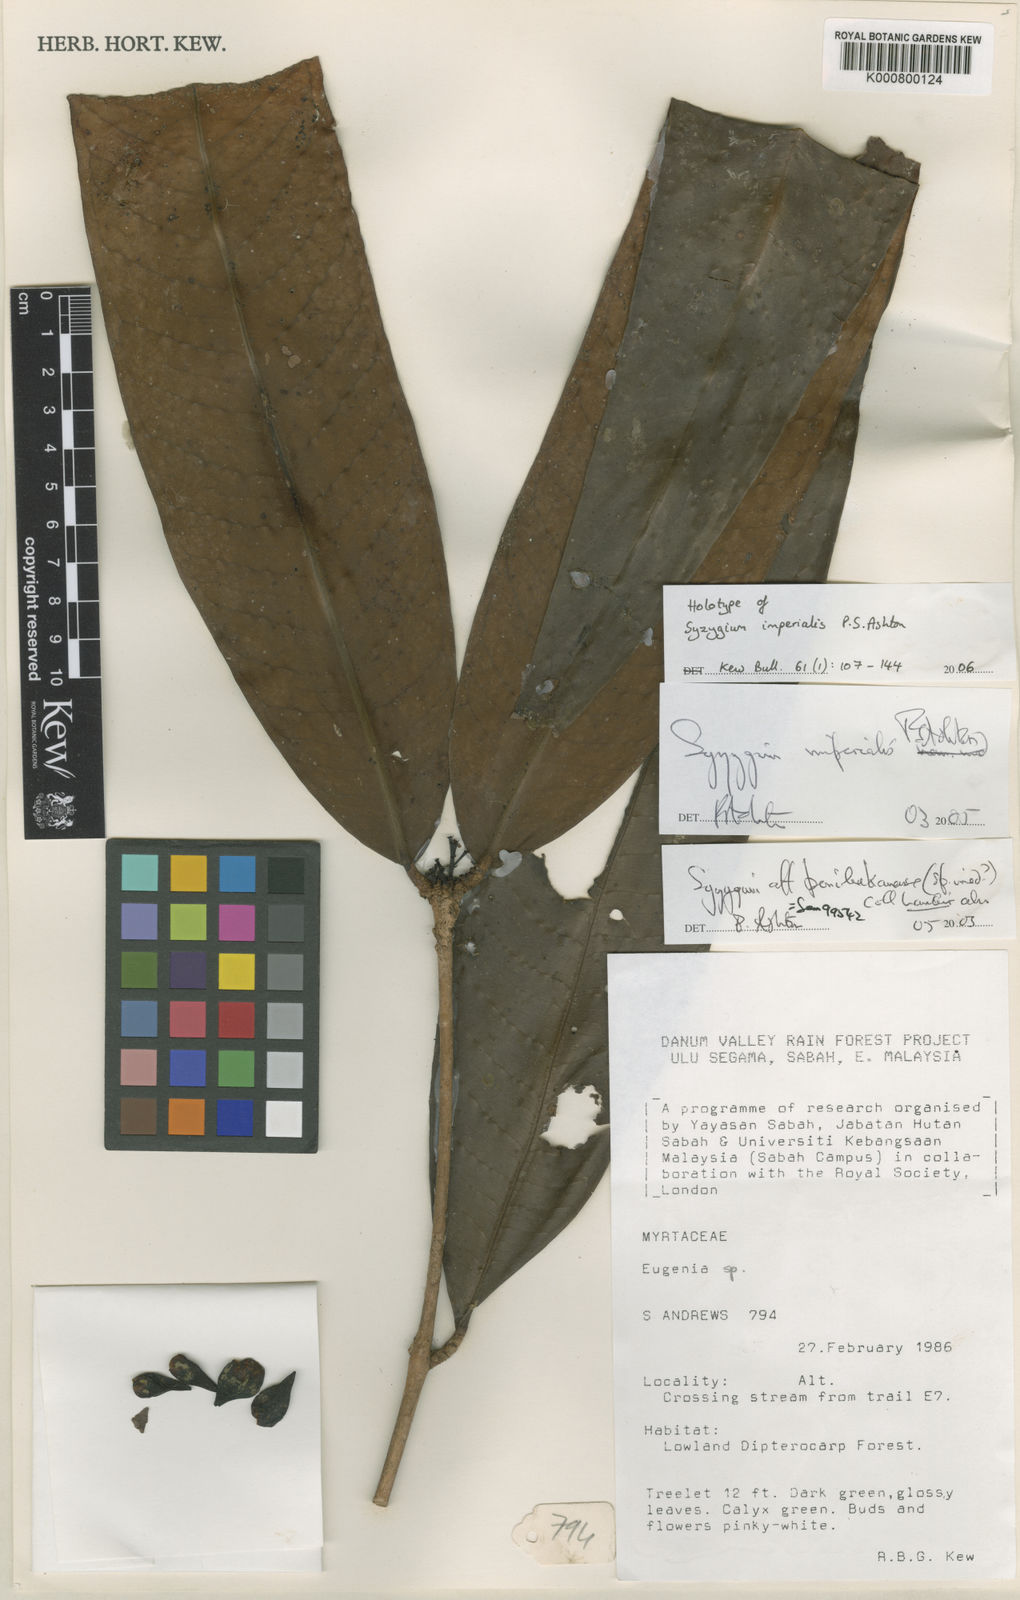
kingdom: Plantae
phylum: Tracheophyta
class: Magnoliopsida
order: Myrtales
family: Myrtaceae
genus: Syzygium
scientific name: Syzygium imperiale
